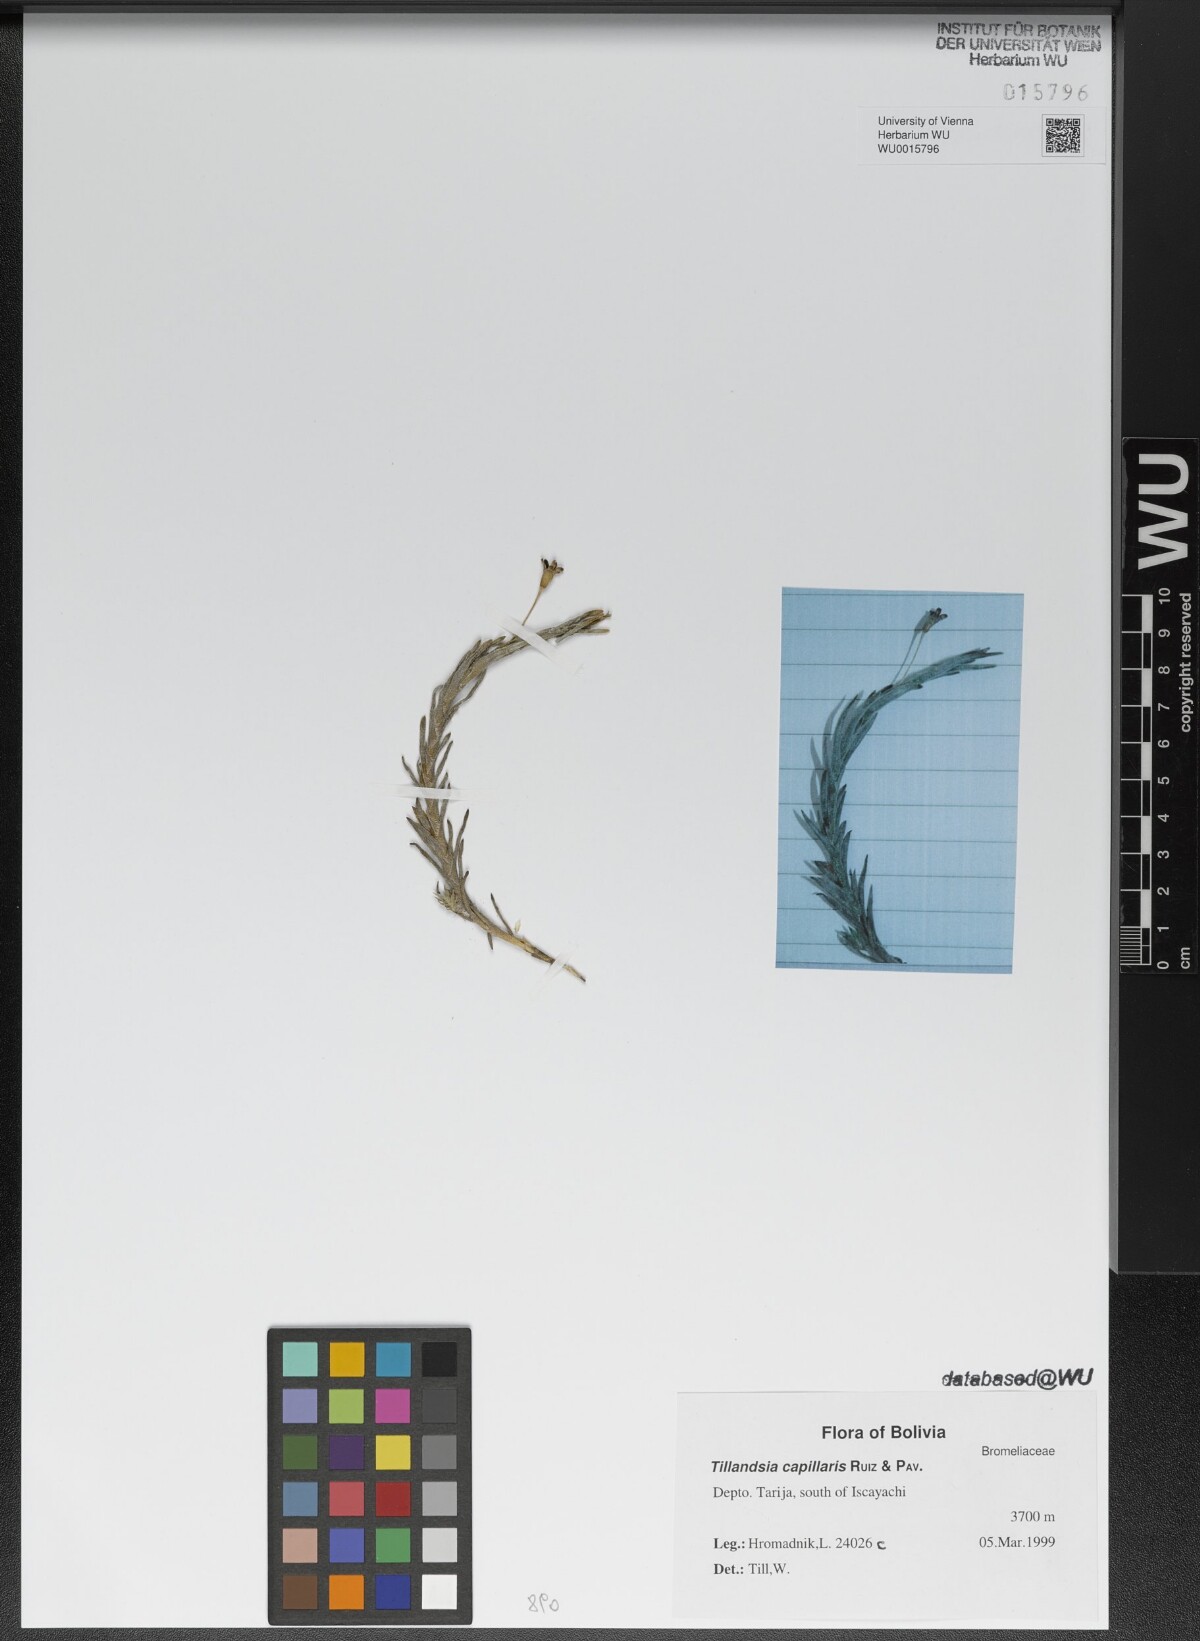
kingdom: Plantae
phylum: Tracheophyta
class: Liliopsida
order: Poales
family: Bromeliaceae
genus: Tillandsia
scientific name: Tillandsia capillaris
